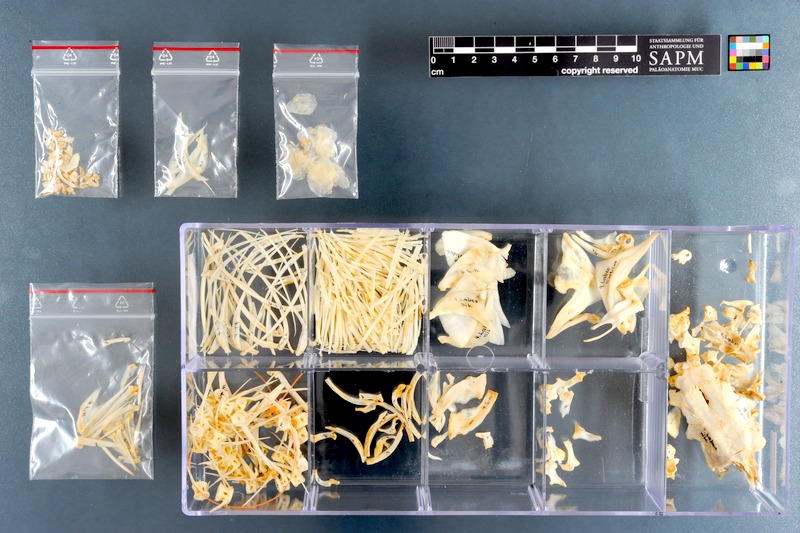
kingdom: Animalia
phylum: Chordata
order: Cypriniformes
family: Cyprinidae
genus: Labeo
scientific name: Labeo niloticus
